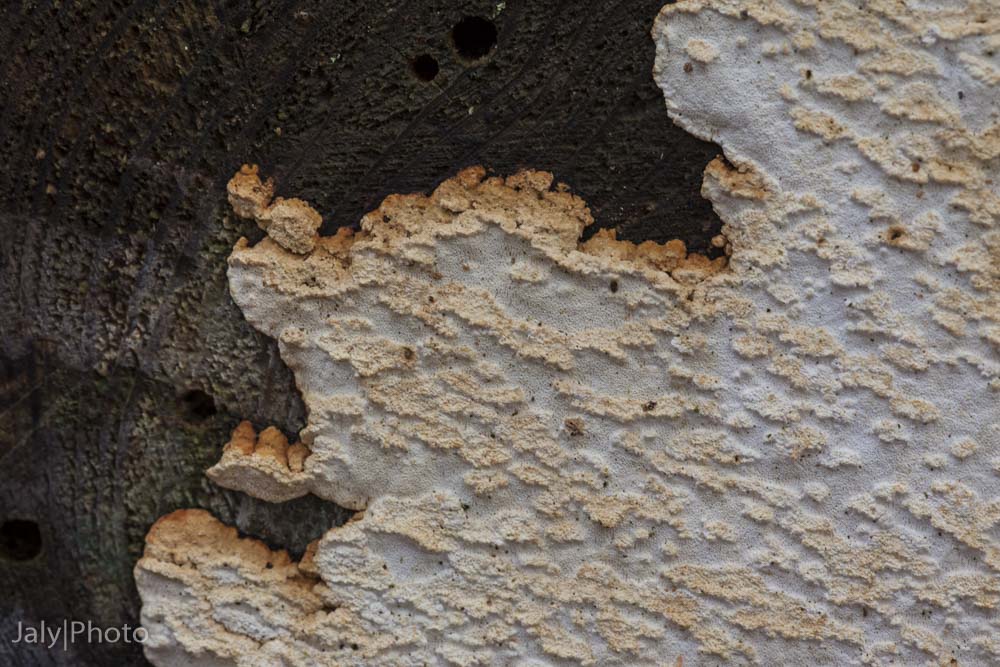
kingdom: Fungi
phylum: Basidiomycota
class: Agaricomycetes
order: Polyporales
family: Fomitopsidaceae
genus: Neoantrodia
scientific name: Neoantrodia serialis
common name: række-sejporesvamp
